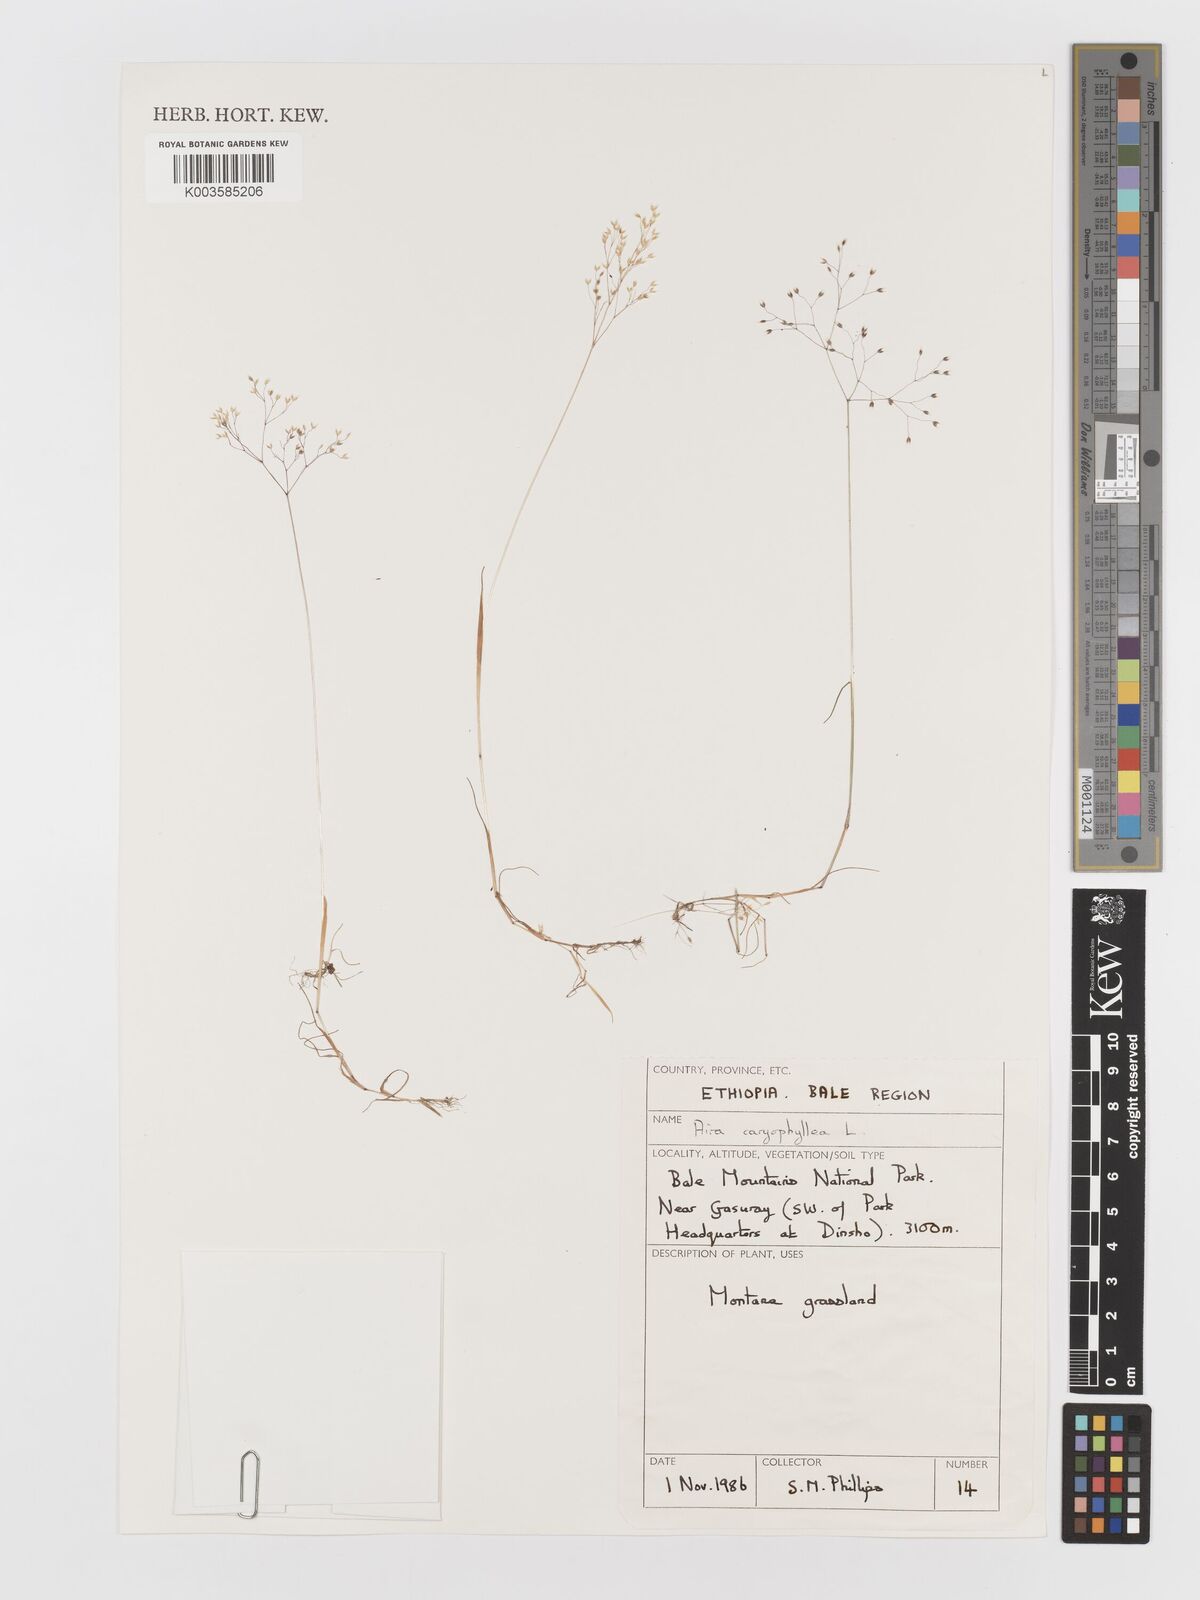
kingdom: Plantae
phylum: Tracheophyta
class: Liliopsida
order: Poales
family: Poaceae
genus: Aira
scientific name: Aira caryophyllea
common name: Silver hairgrass
